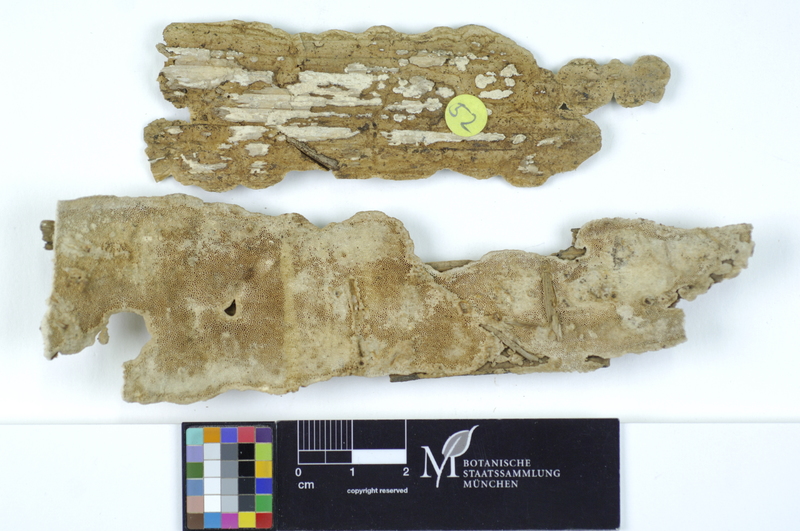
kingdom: Fungi
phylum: Basidiomycota
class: Agaricomycetes
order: Polyporales
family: Fomitopsidaceae
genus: Neoantrodia
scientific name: Neoantrodia serialis
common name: Serried porecrust
